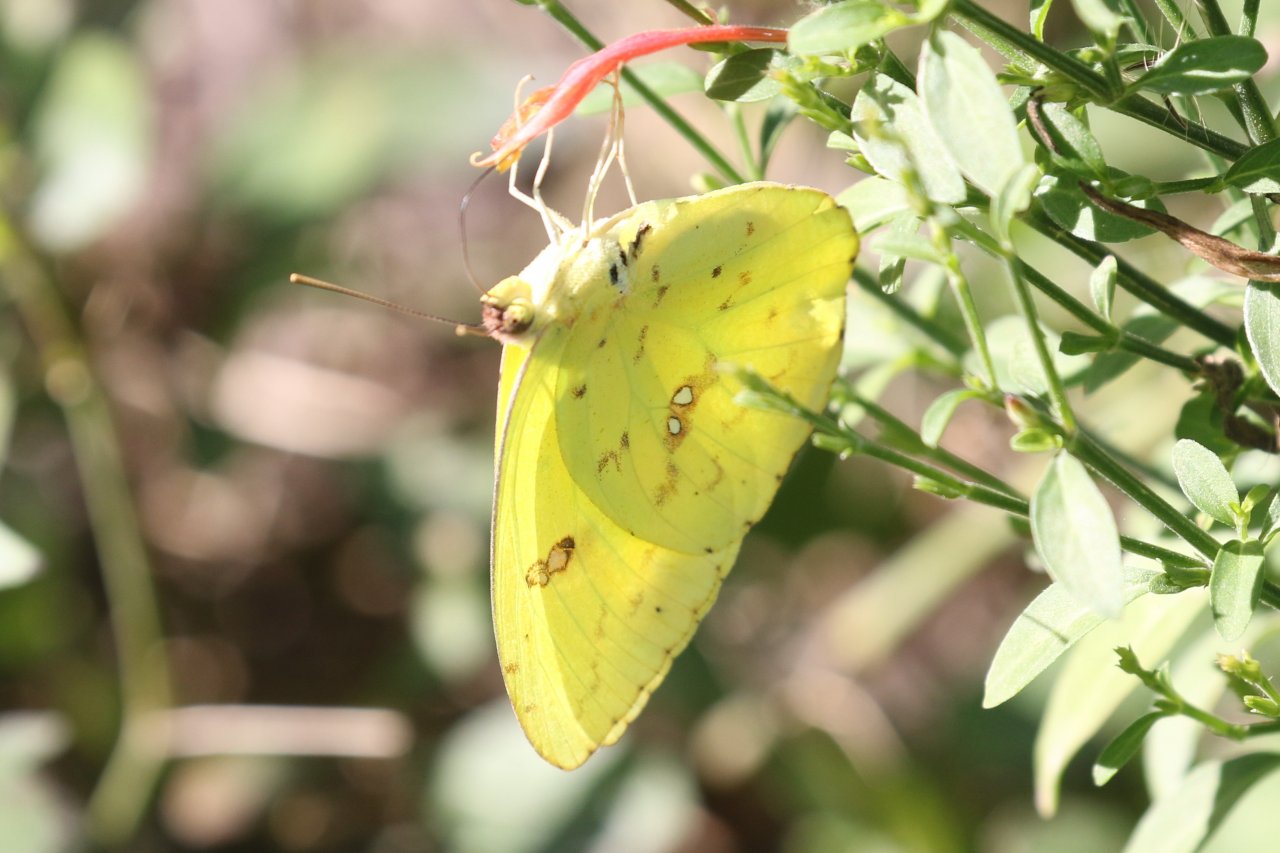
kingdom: Animalia
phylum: Arthropoda
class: Insecta
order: Lepidoptera
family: Pieridae
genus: Phoebis
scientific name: Phoebis sennae
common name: Cloudless Sulphur
